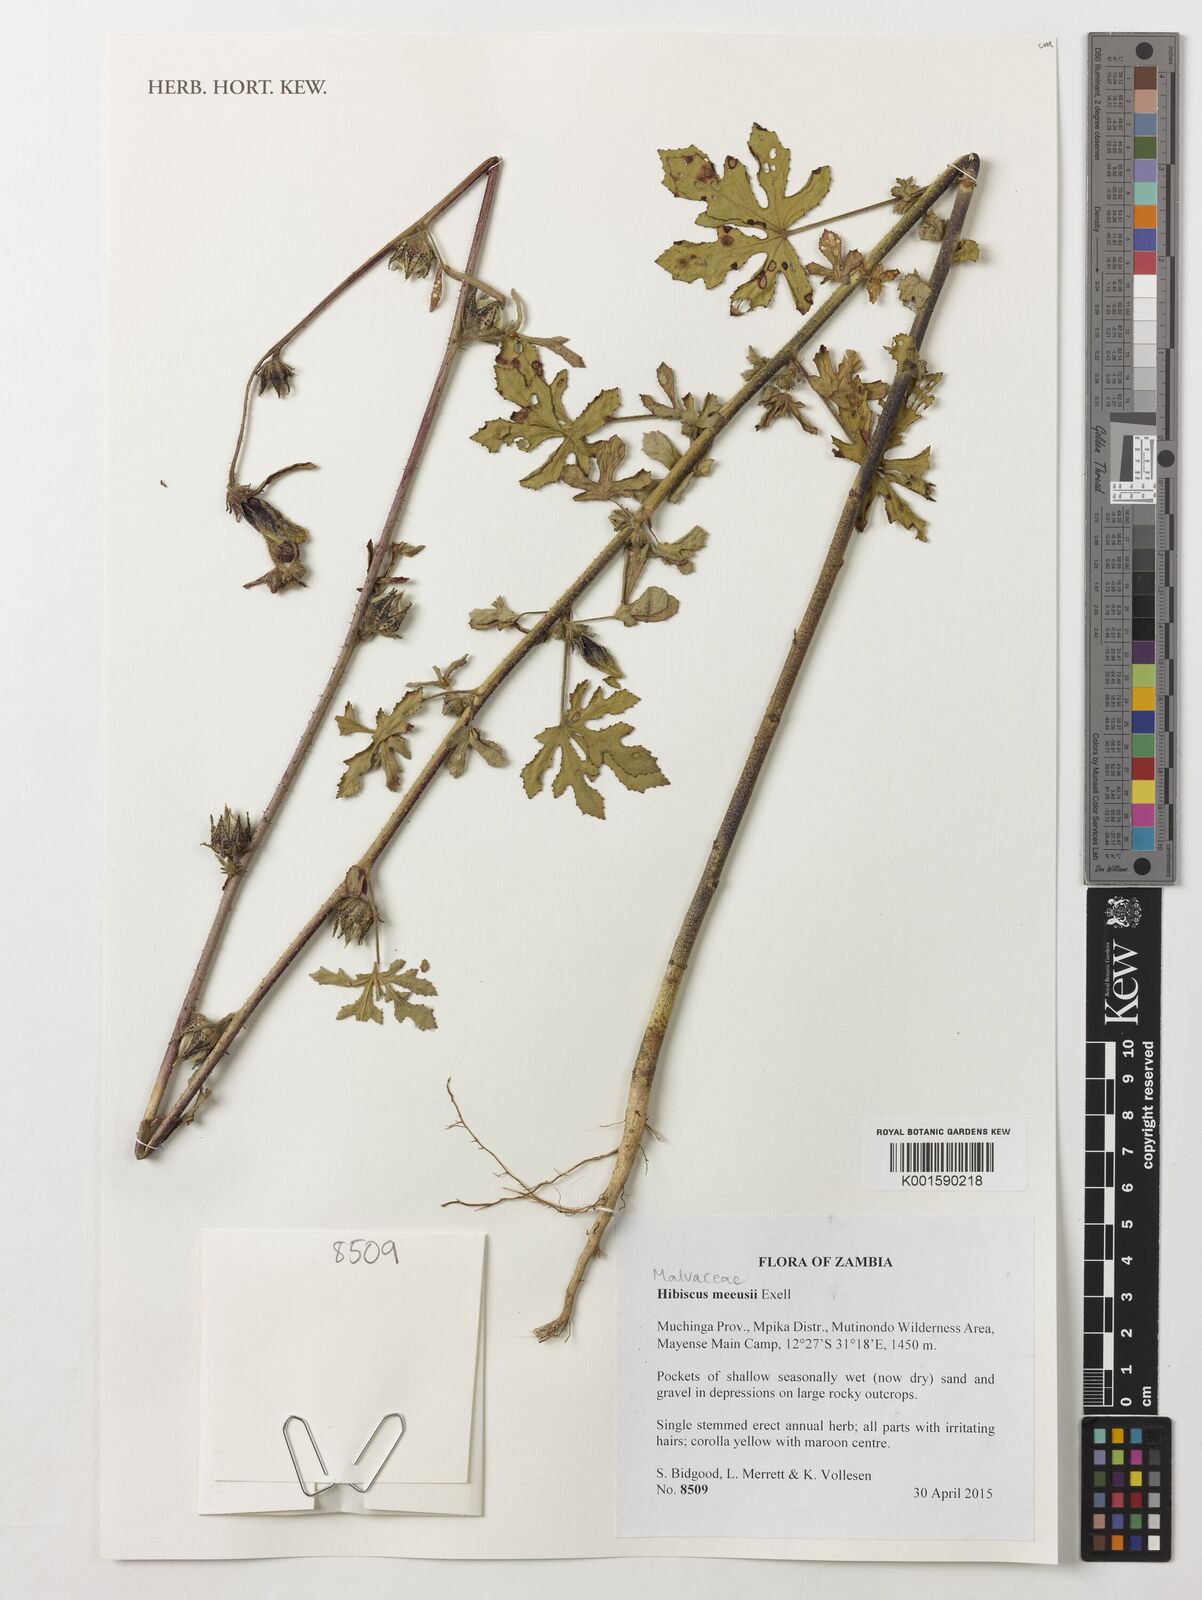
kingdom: Plantae
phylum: Tracheophyta
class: Magnoliopsida
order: Malvales
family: Malvaceae
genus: Hibiscus
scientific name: Hibiscus nigricaulis
